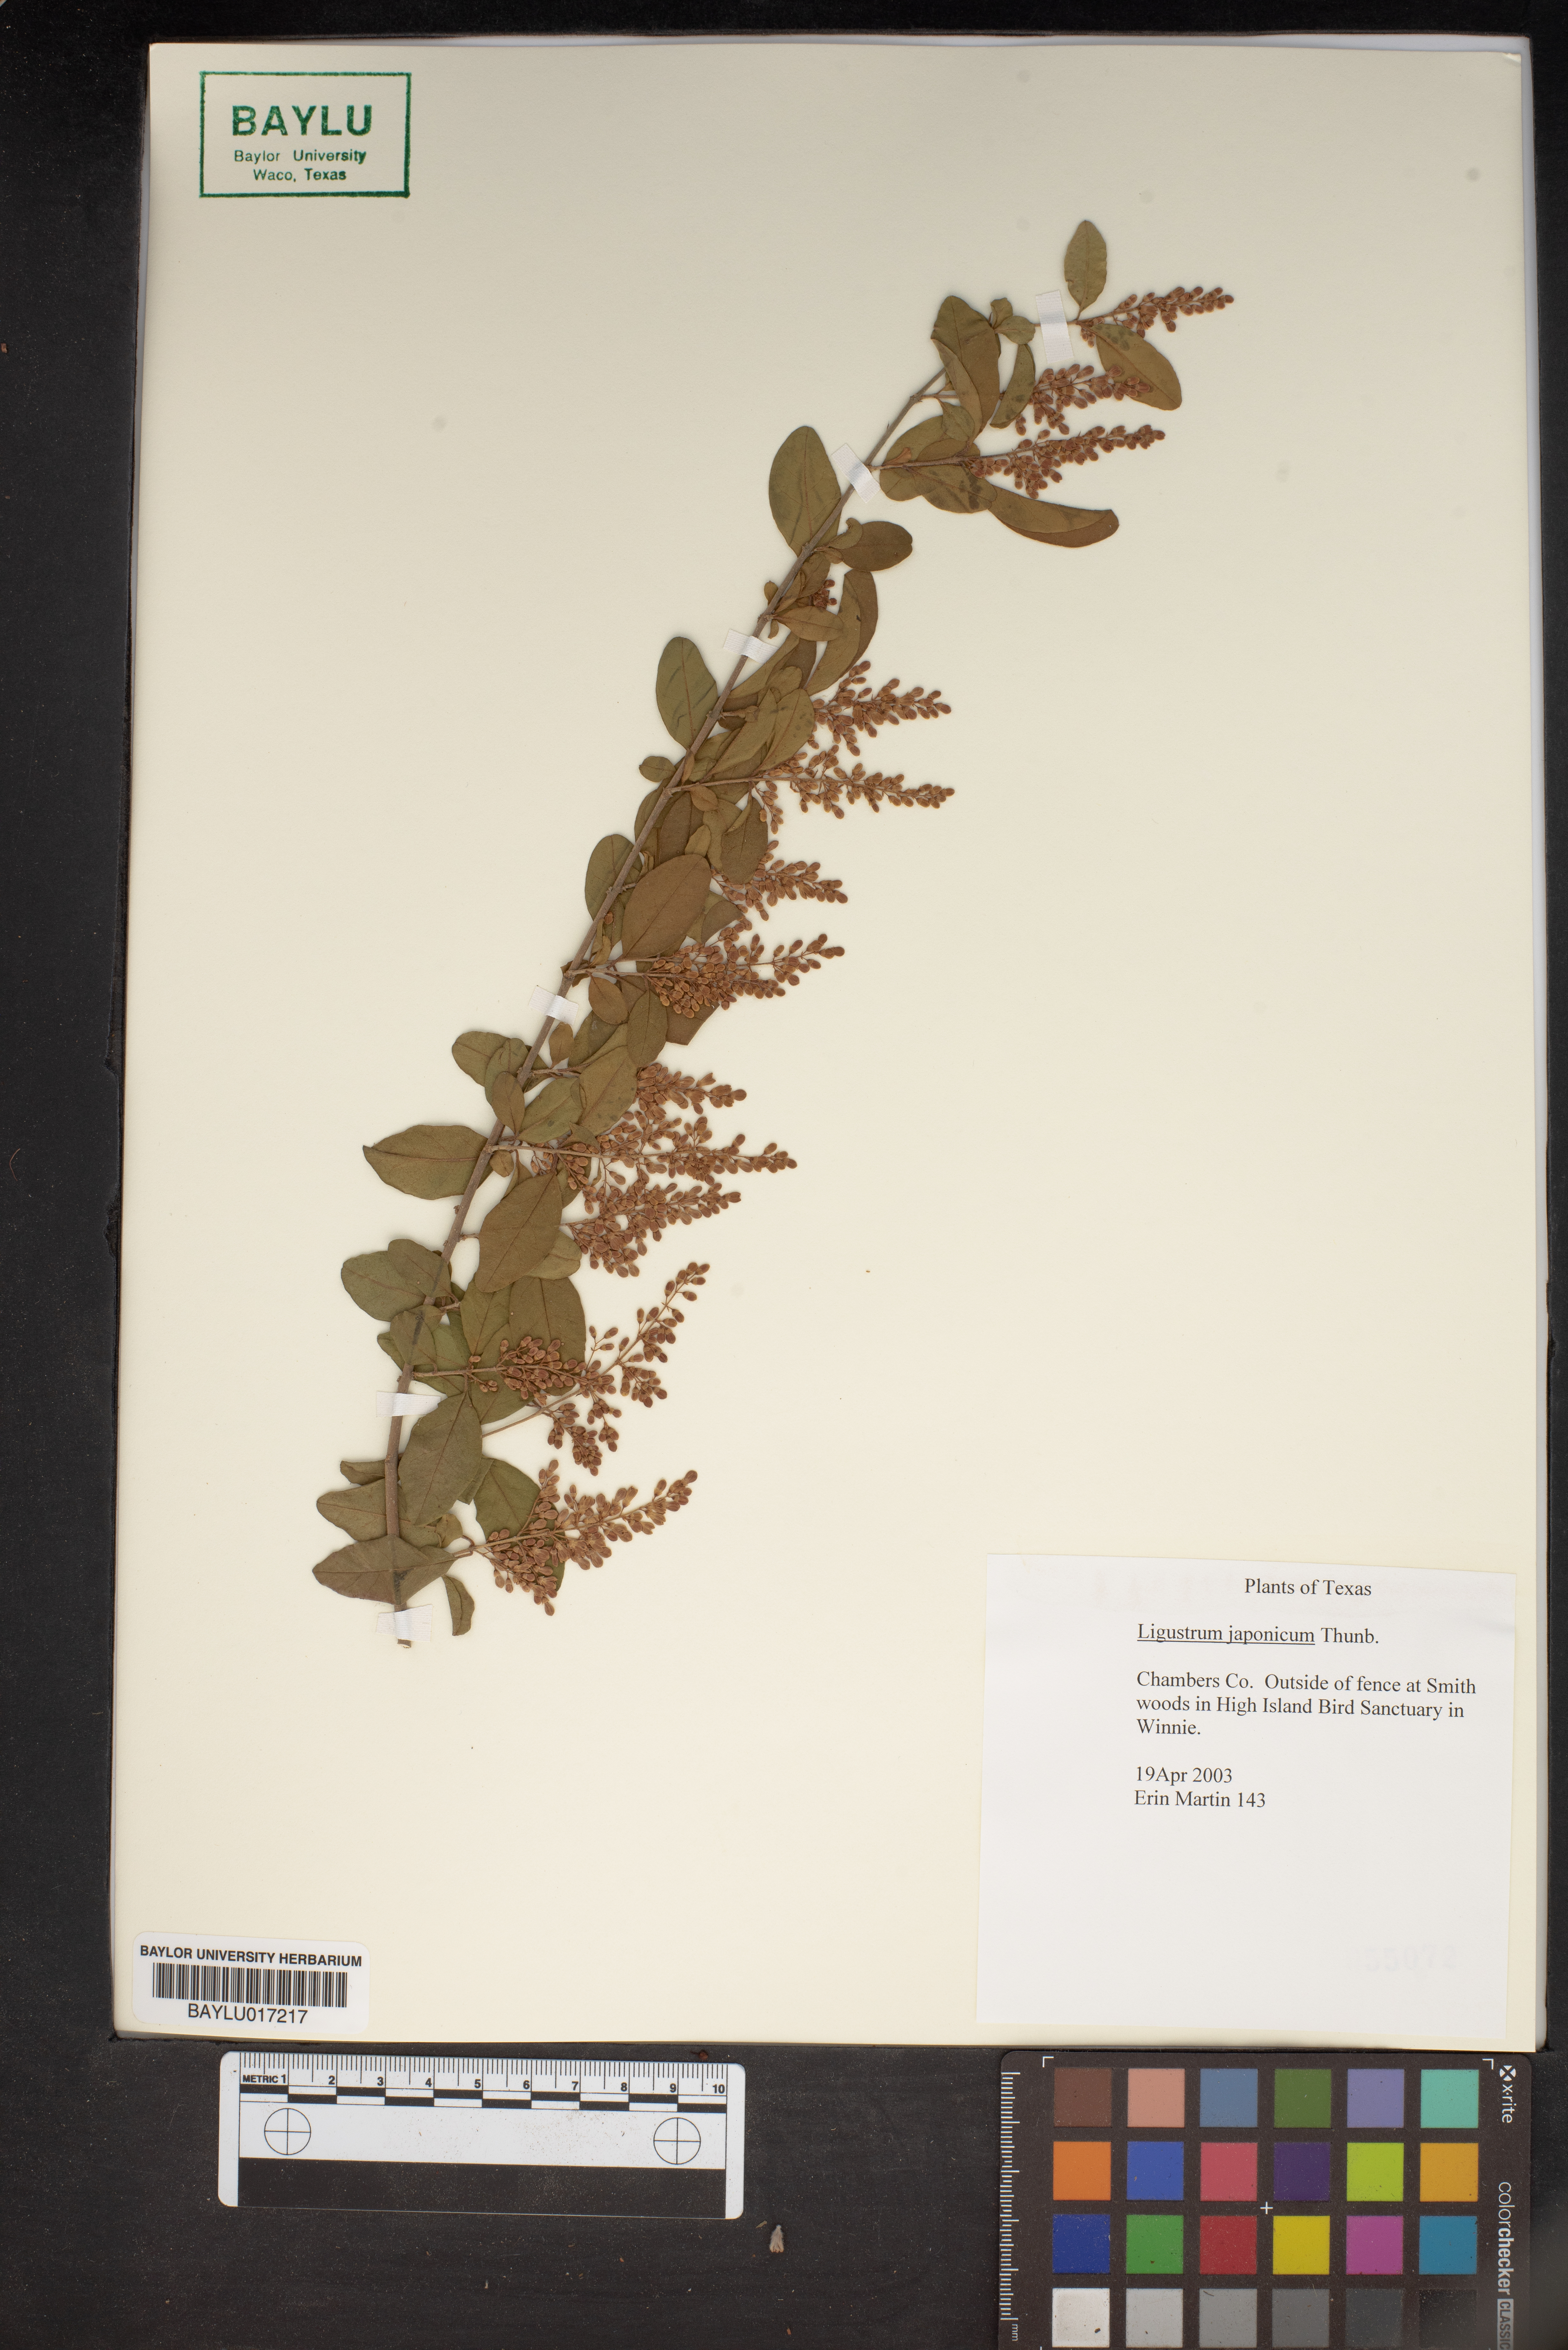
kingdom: Plantae
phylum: Tracheophyta
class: Magnoliopsida
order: Lamiales
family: Oleaceae
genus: Ligustrum
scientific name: Ligustrum japonicum
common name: Japanese privet
